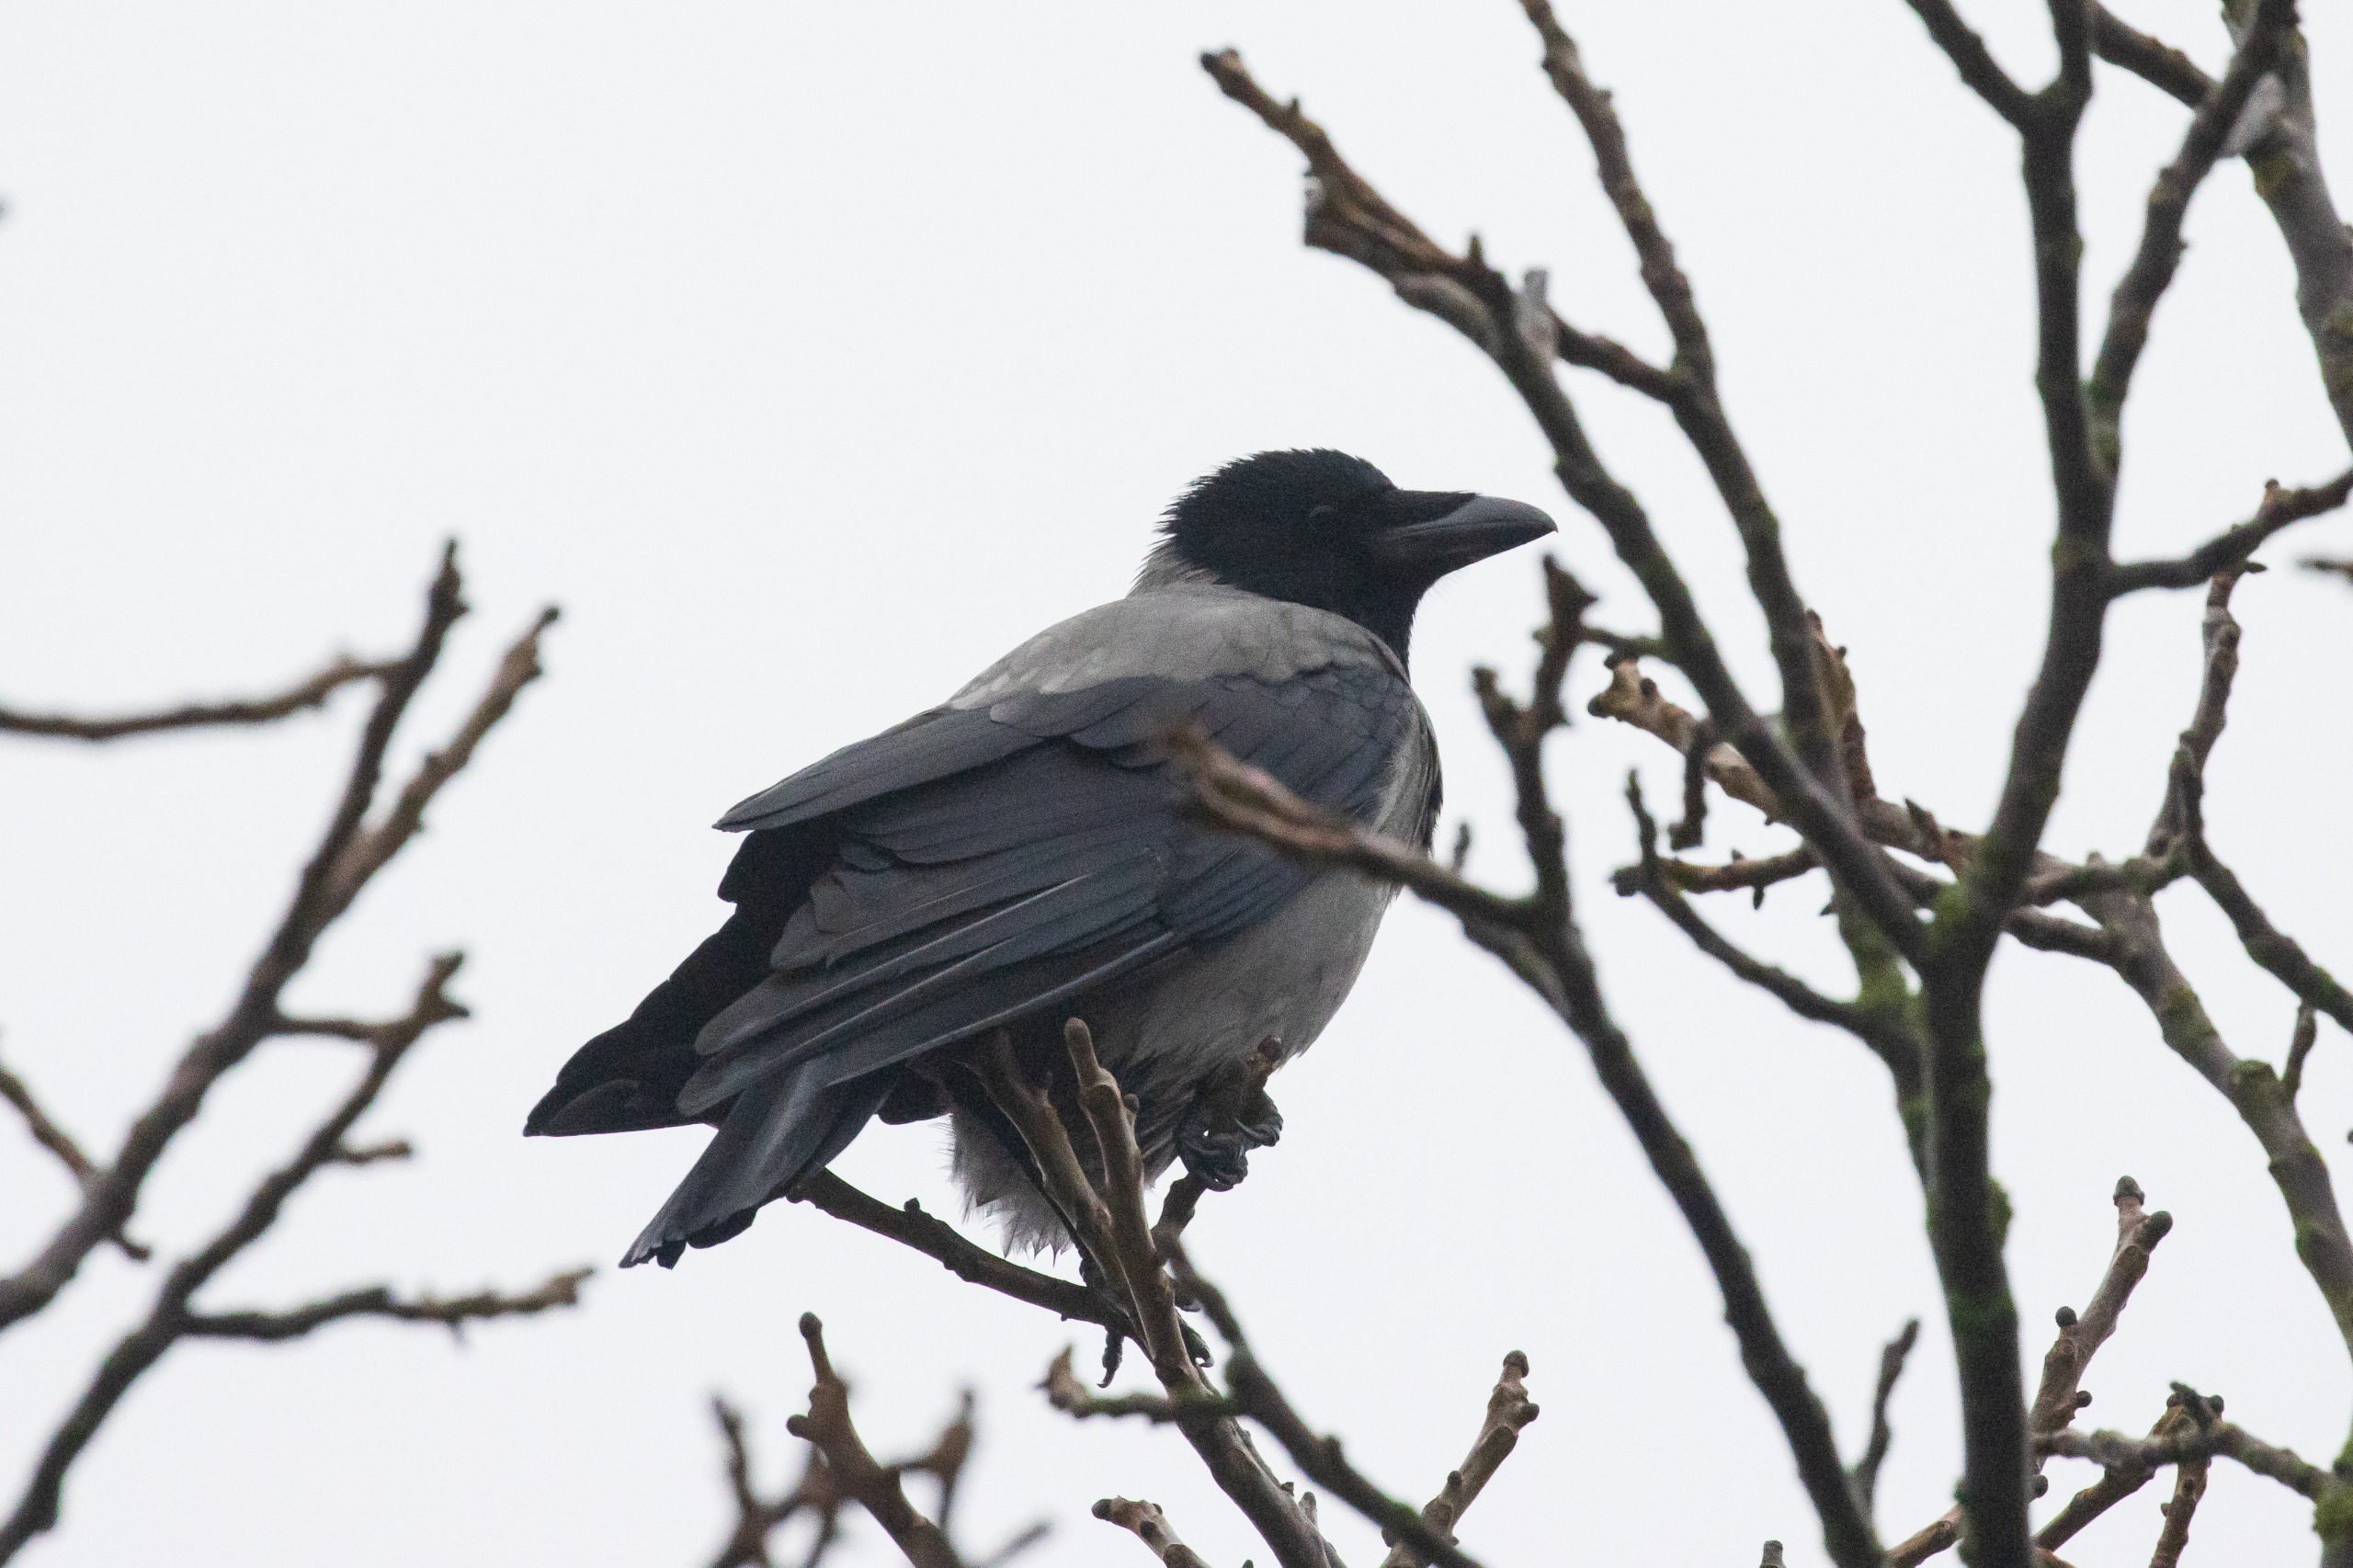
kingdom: Animalia
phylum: Chordata
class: Aves
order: Passeriformes
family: Corvidae
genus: Corvus
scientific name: Corvus cornix
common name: Gråkrage
